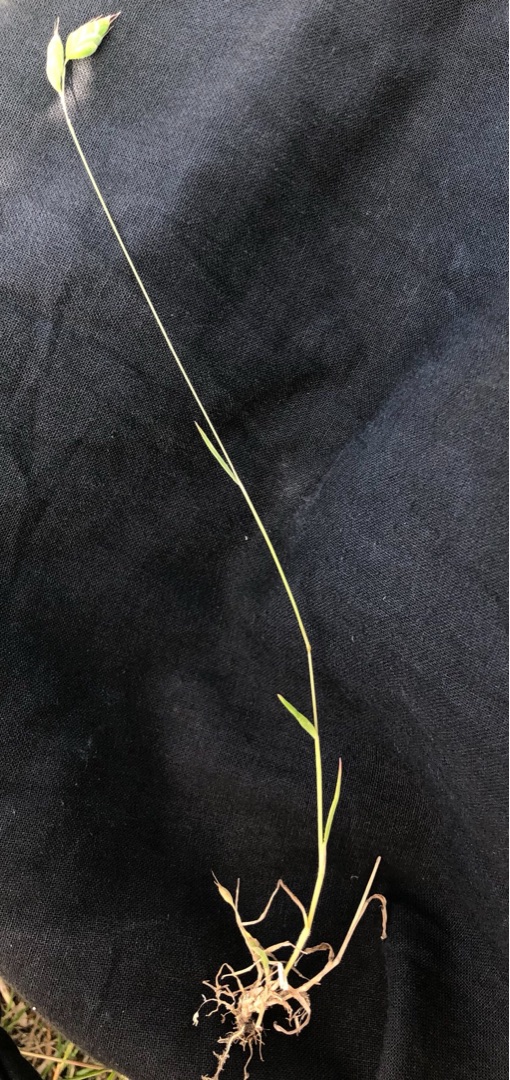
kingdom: Plantae
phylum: Tracheophyta
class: Liliopsida
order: Poales
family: Poaceae
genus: Bromus
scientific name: Bromus hordeaceus
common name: Blød hejre
